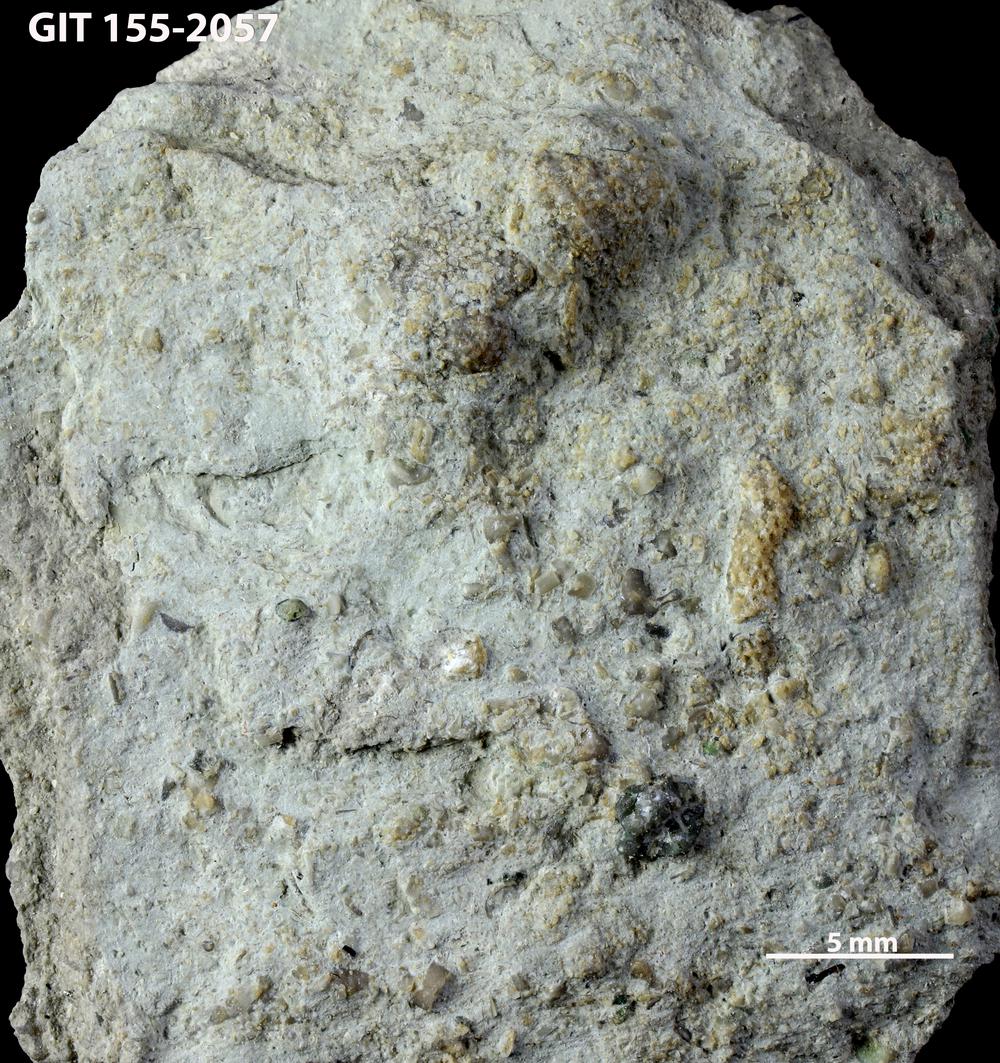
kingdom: Animalia
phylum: Bryozoa
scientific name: Bryozoa
